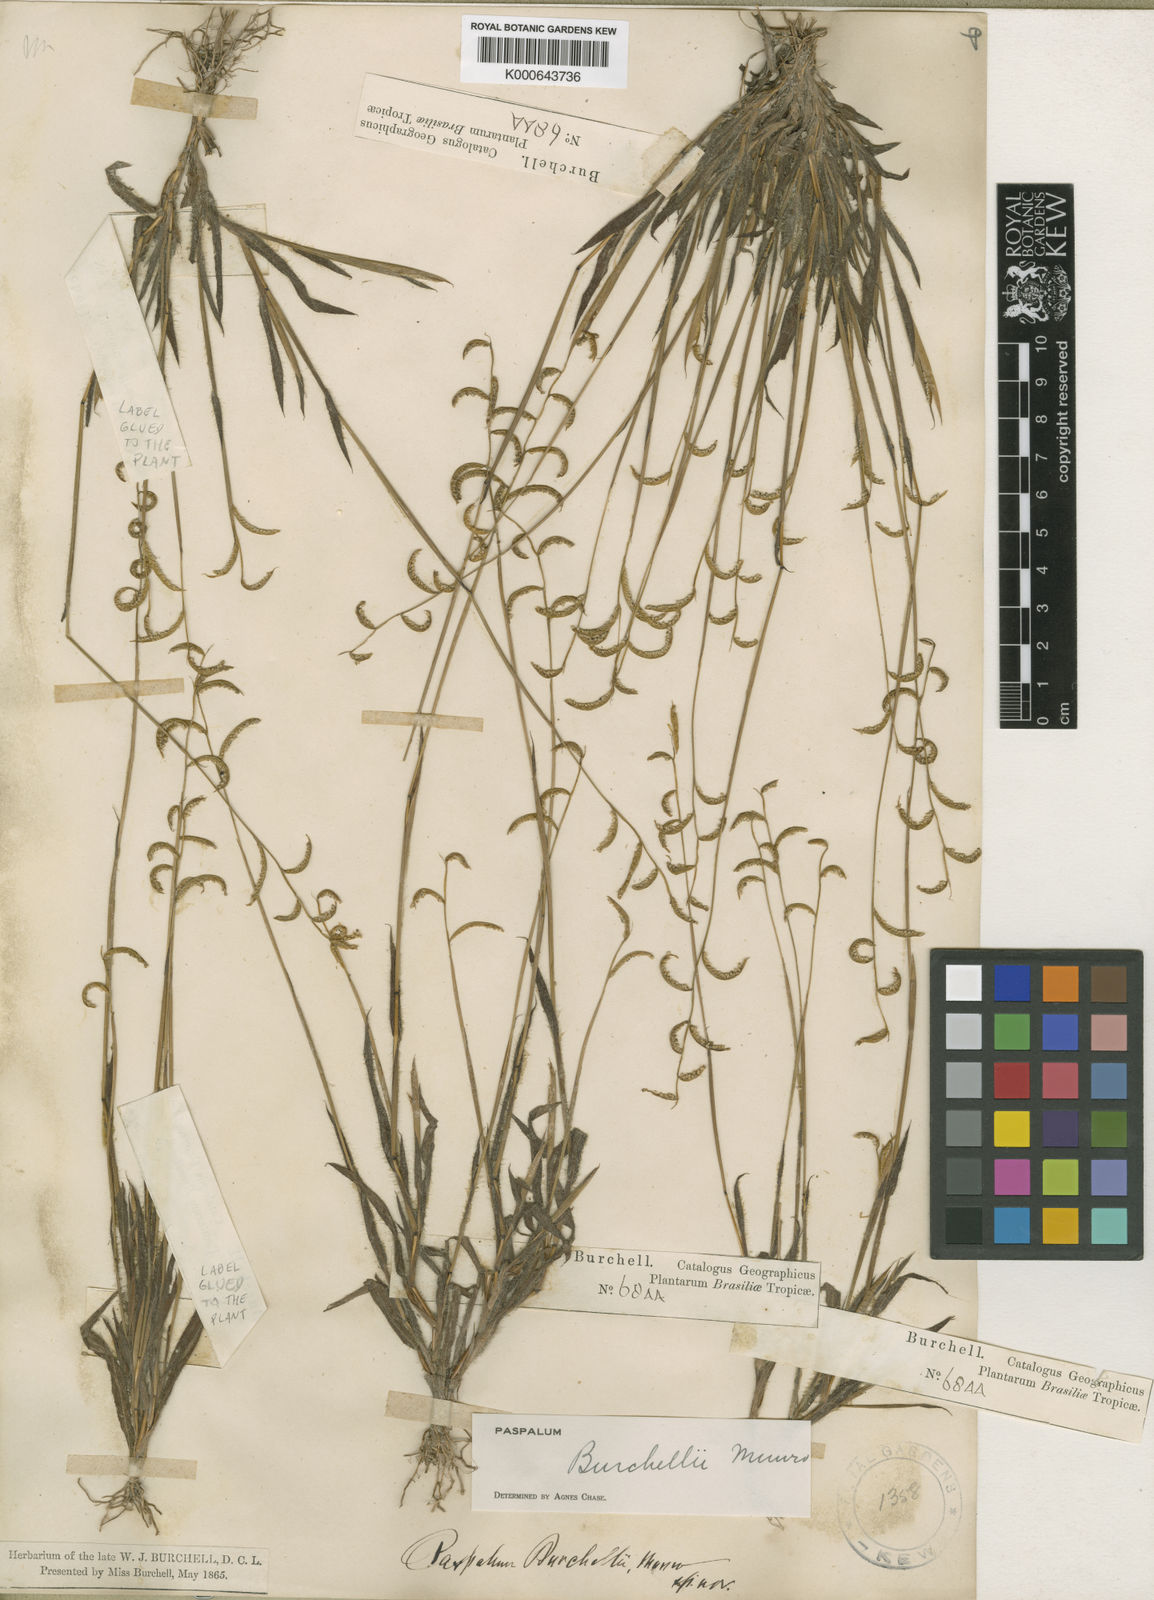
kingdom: Plantae
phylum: Tracheophyta
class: Liliopsida
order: Poales
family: Poaceae
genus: Paspalum
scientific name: Paspalum burchellii
